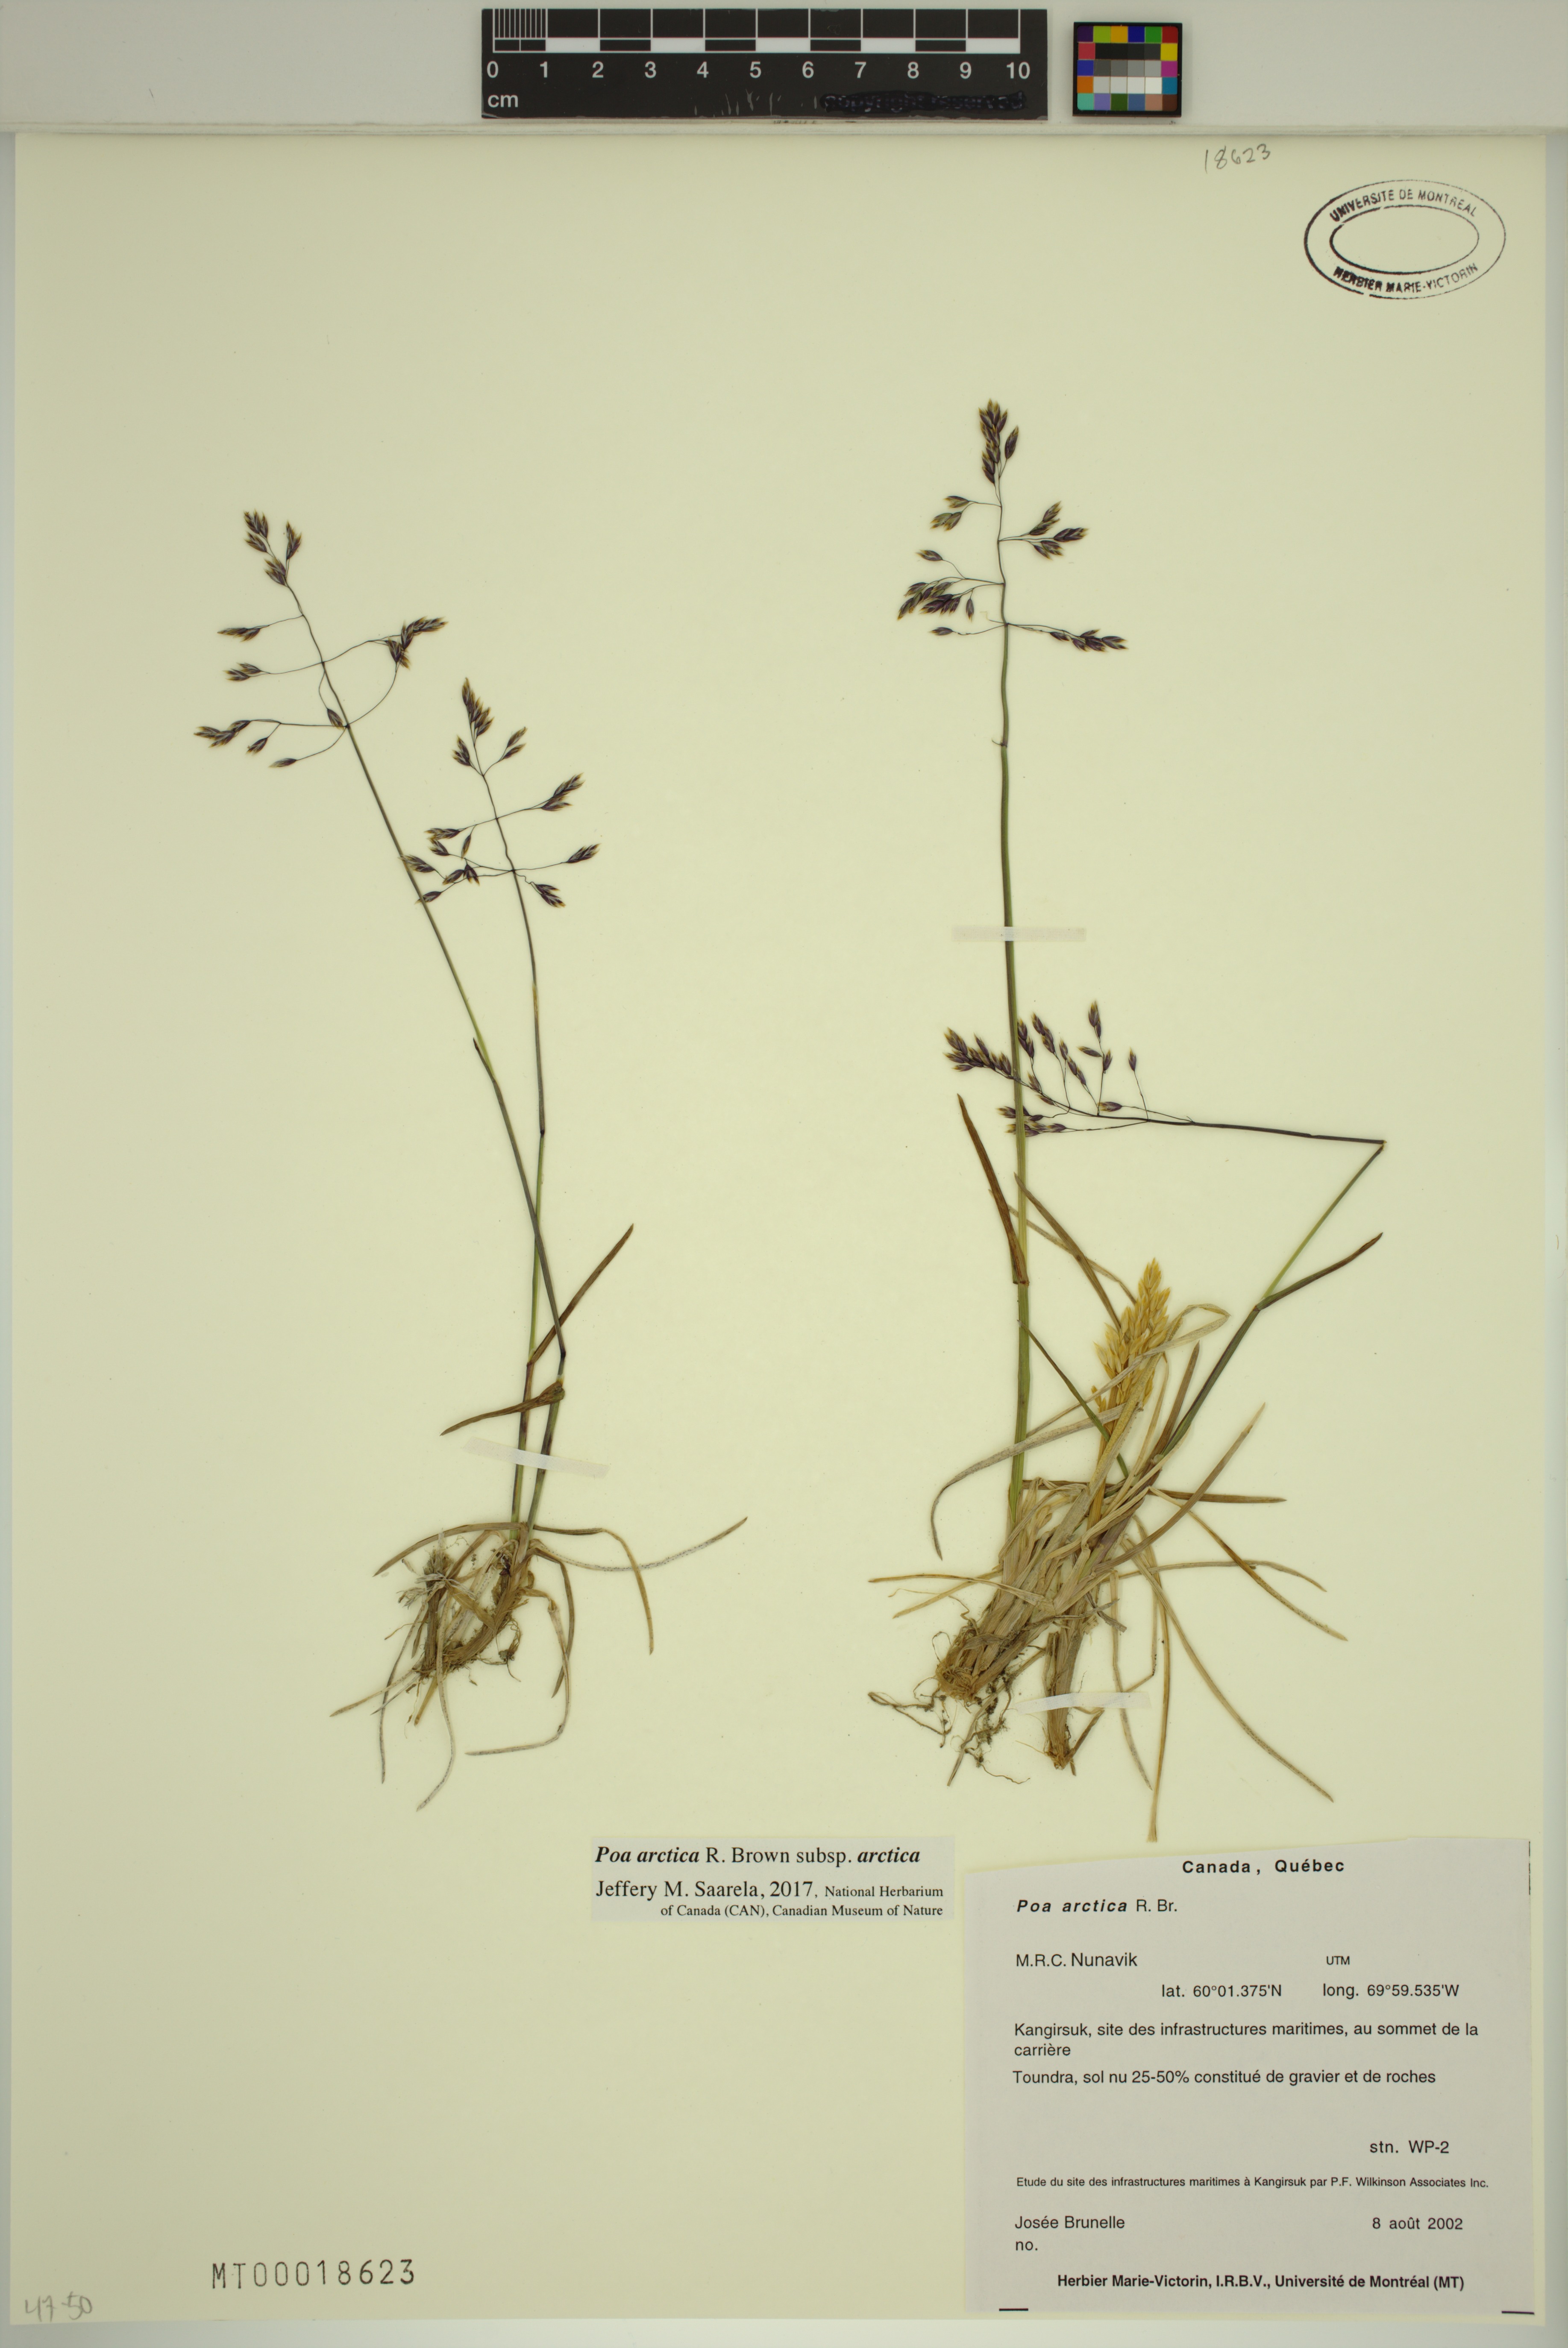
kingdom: Plantae
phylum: Tracheophyta
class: Liliopsida
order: Poales
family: Poaceae
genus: Poa
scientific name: Poa arctica
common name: Arctic bluegrass
